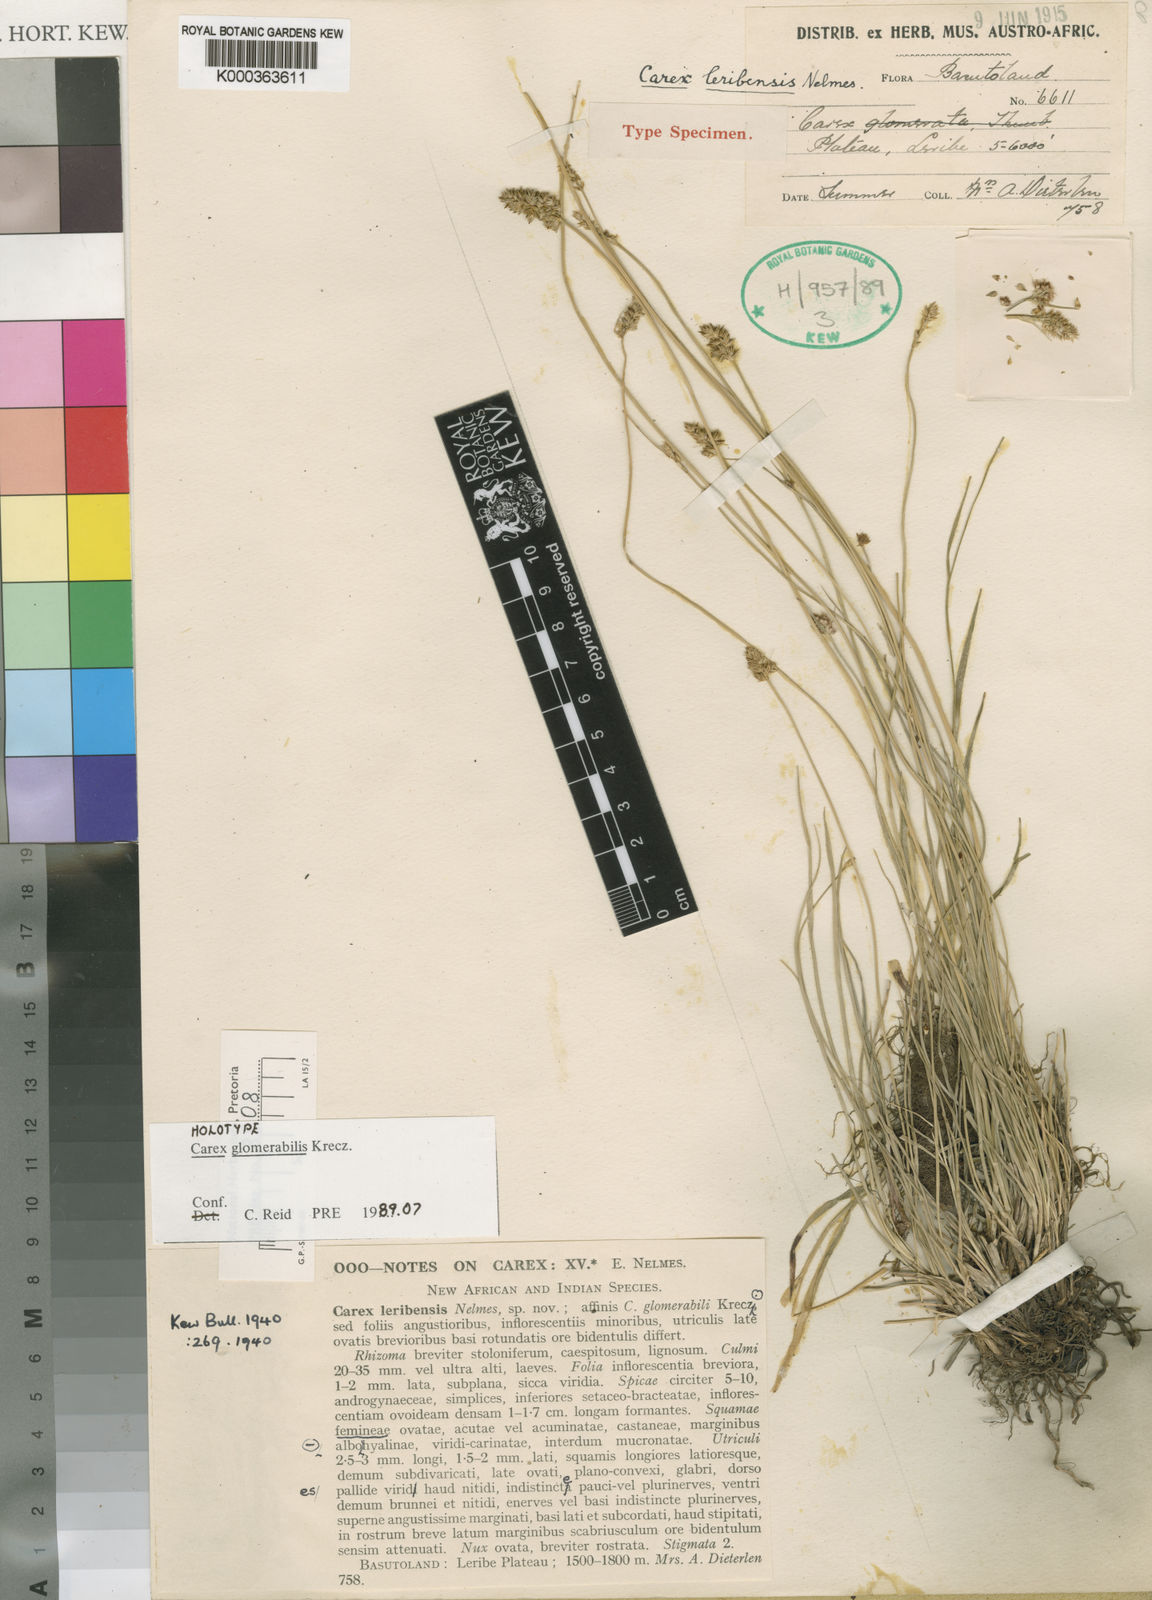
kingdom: Plantae
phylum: Tracheophyta
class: Liliopsida
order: Poales
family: Cyperaceae
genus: Carex
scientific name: Carex glomerata
